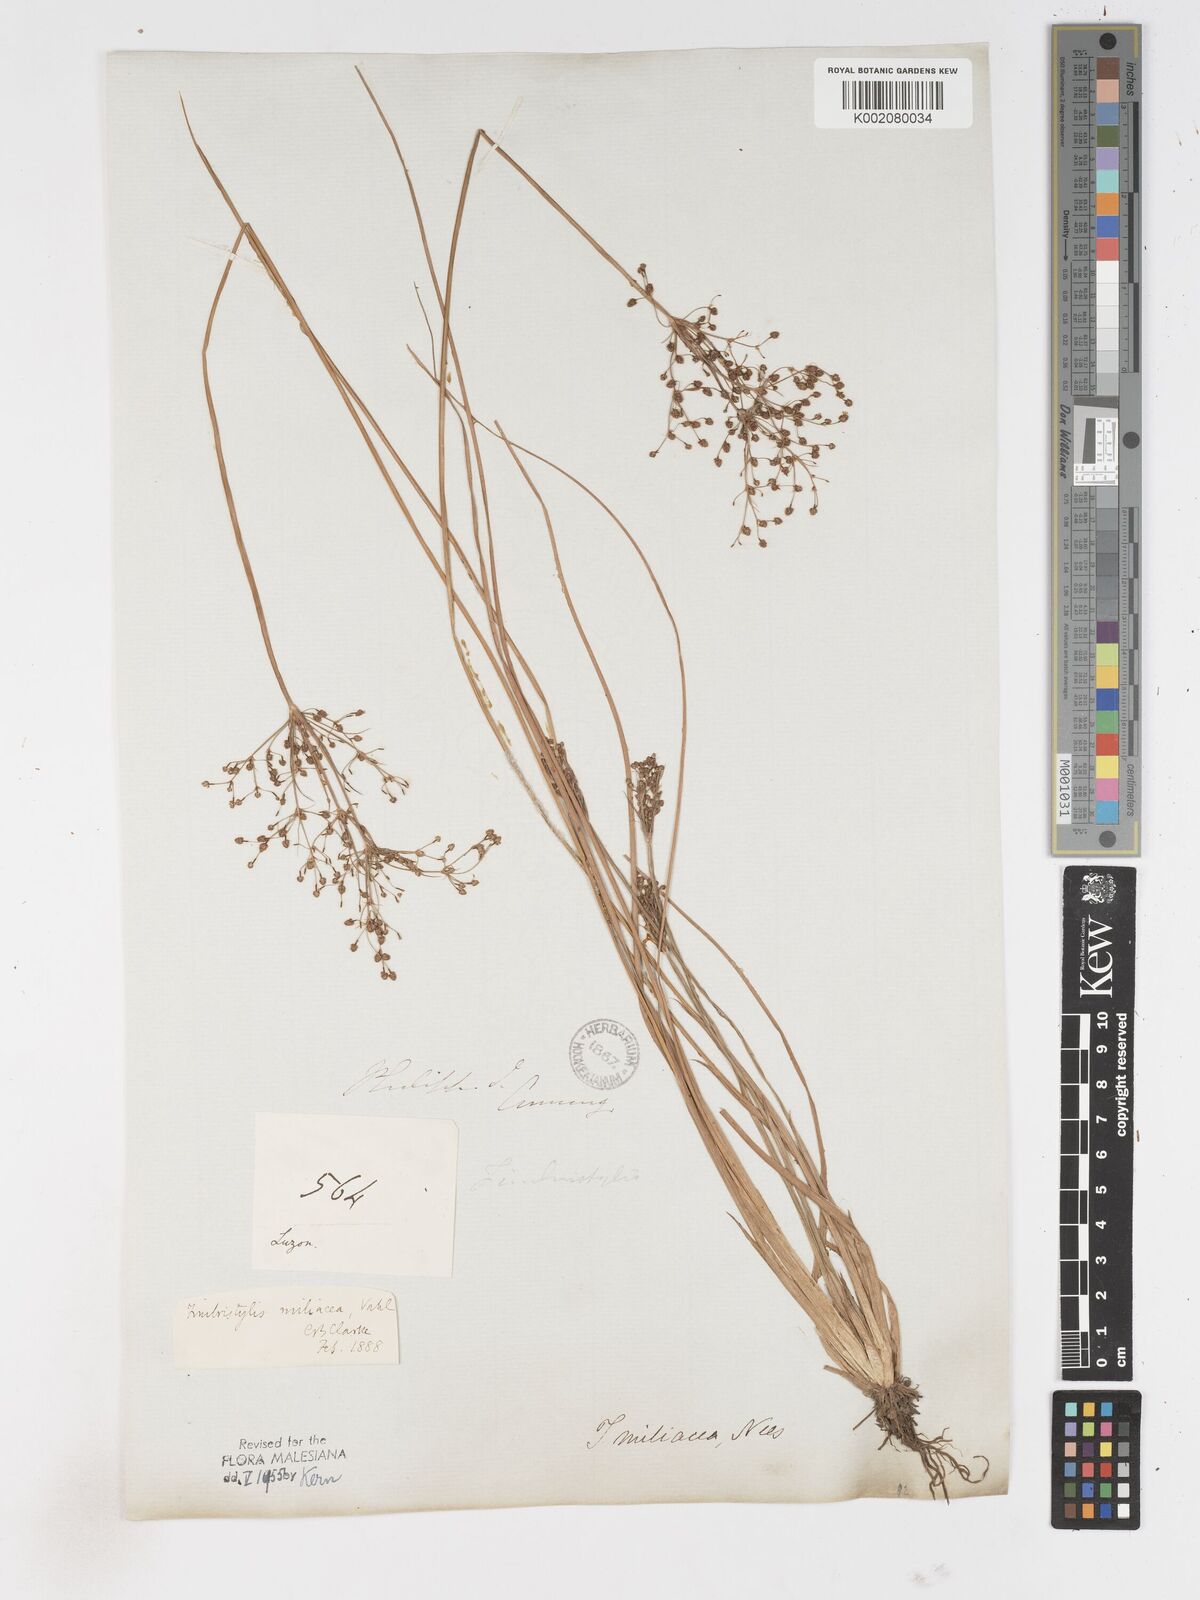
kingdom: Plantae
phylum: Tracheophyta
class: Liliopsida
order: Poales
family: Cyperaceae
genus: Fimbristylis
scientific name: Fimbristylis littoralis
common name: Fimbry
